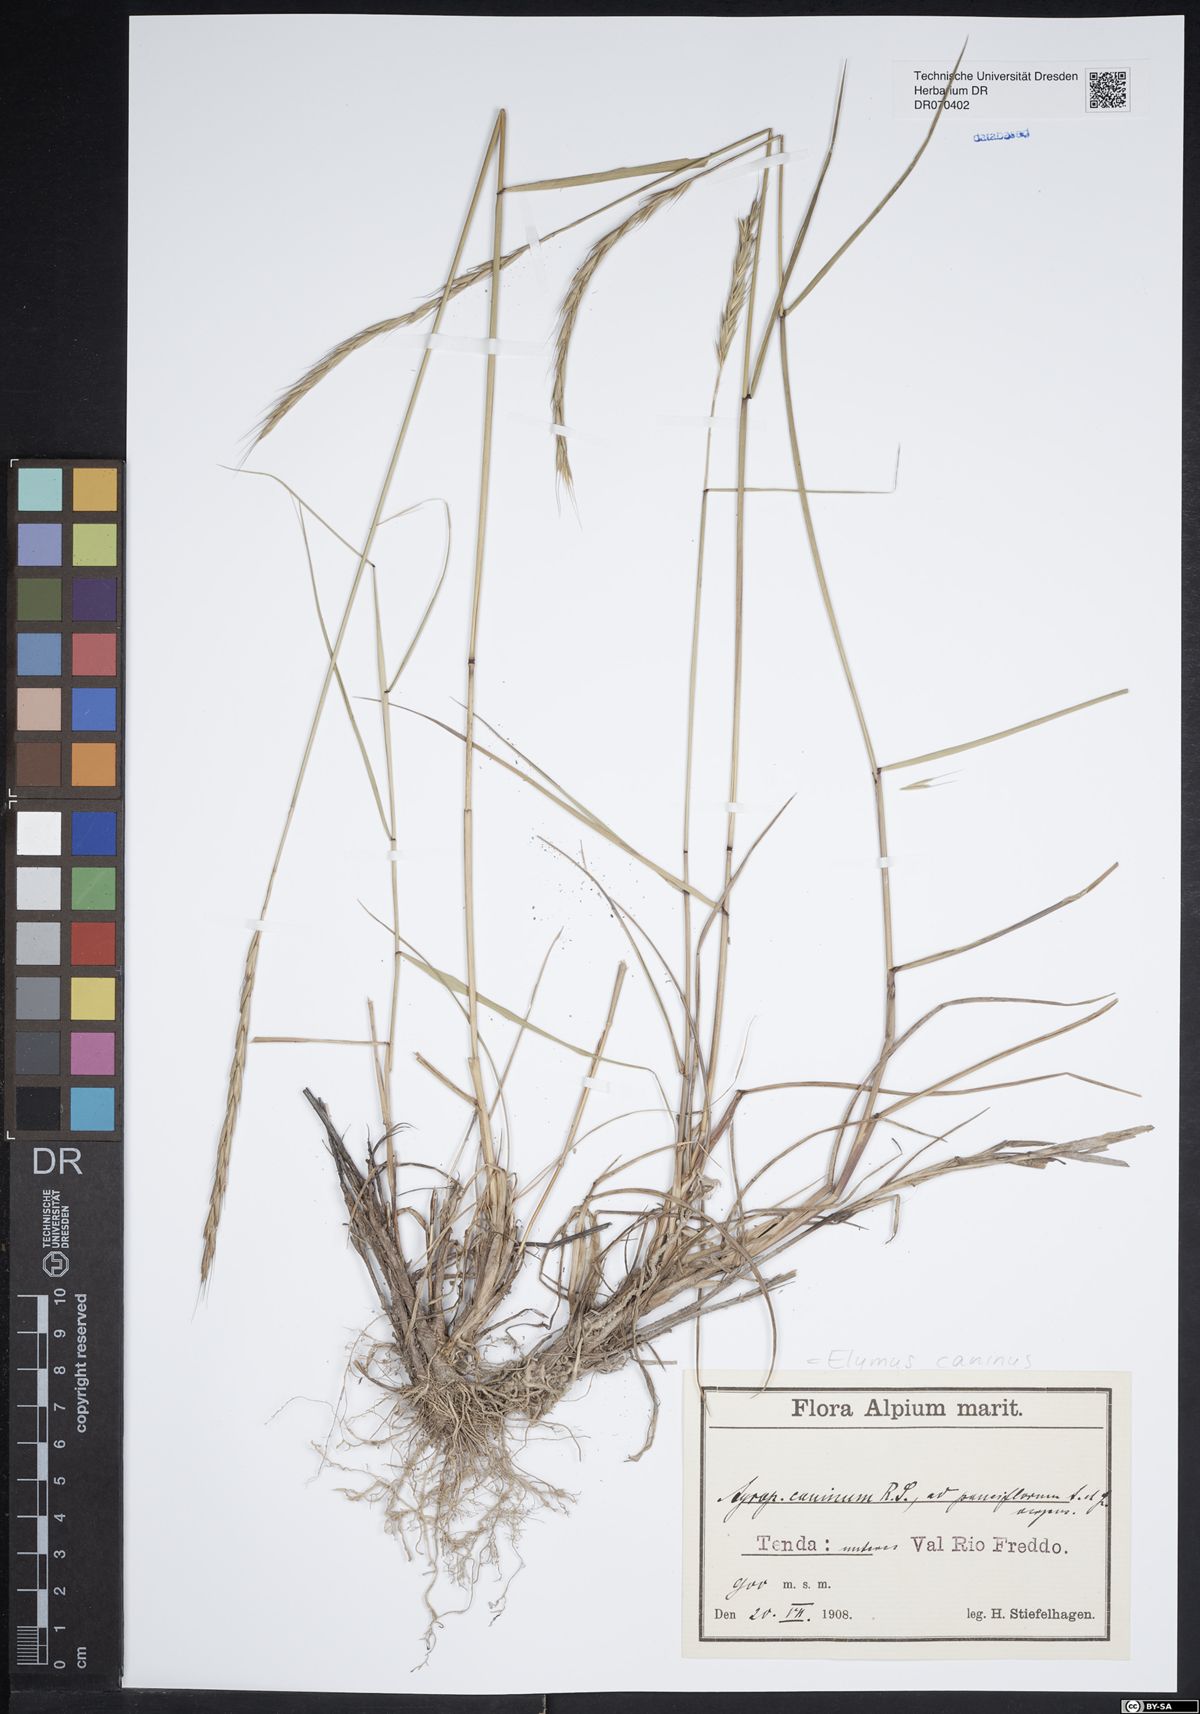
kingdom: Plantae
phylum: Tracheophyta
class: Liliopsida
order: Poales
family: Poaceae
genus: Elymus
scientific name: Elymus caninus
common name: Bearded couch
